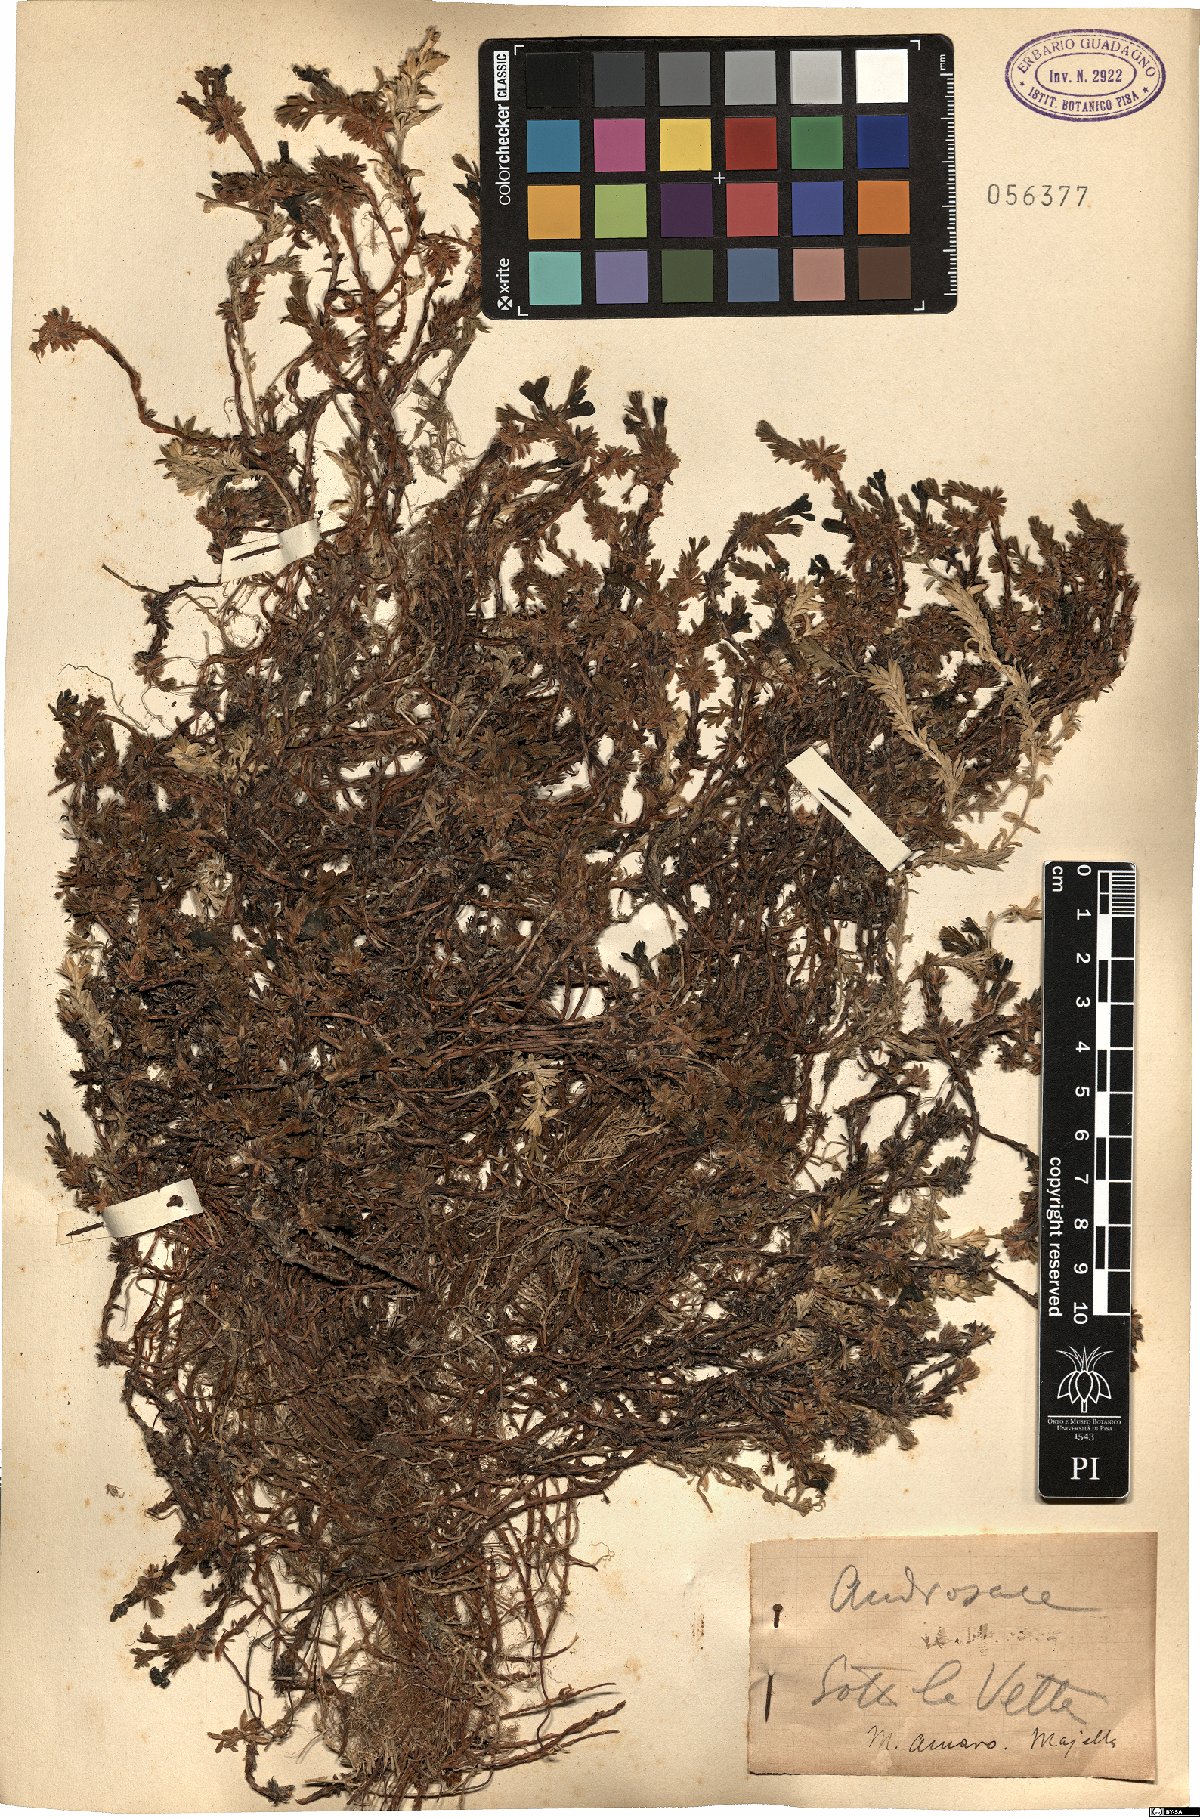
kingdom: Plantae
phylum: Tracheophyta
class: Magnoliopsida
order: Ericales
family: Primulaceae
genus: Androsace
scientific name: Androsace
